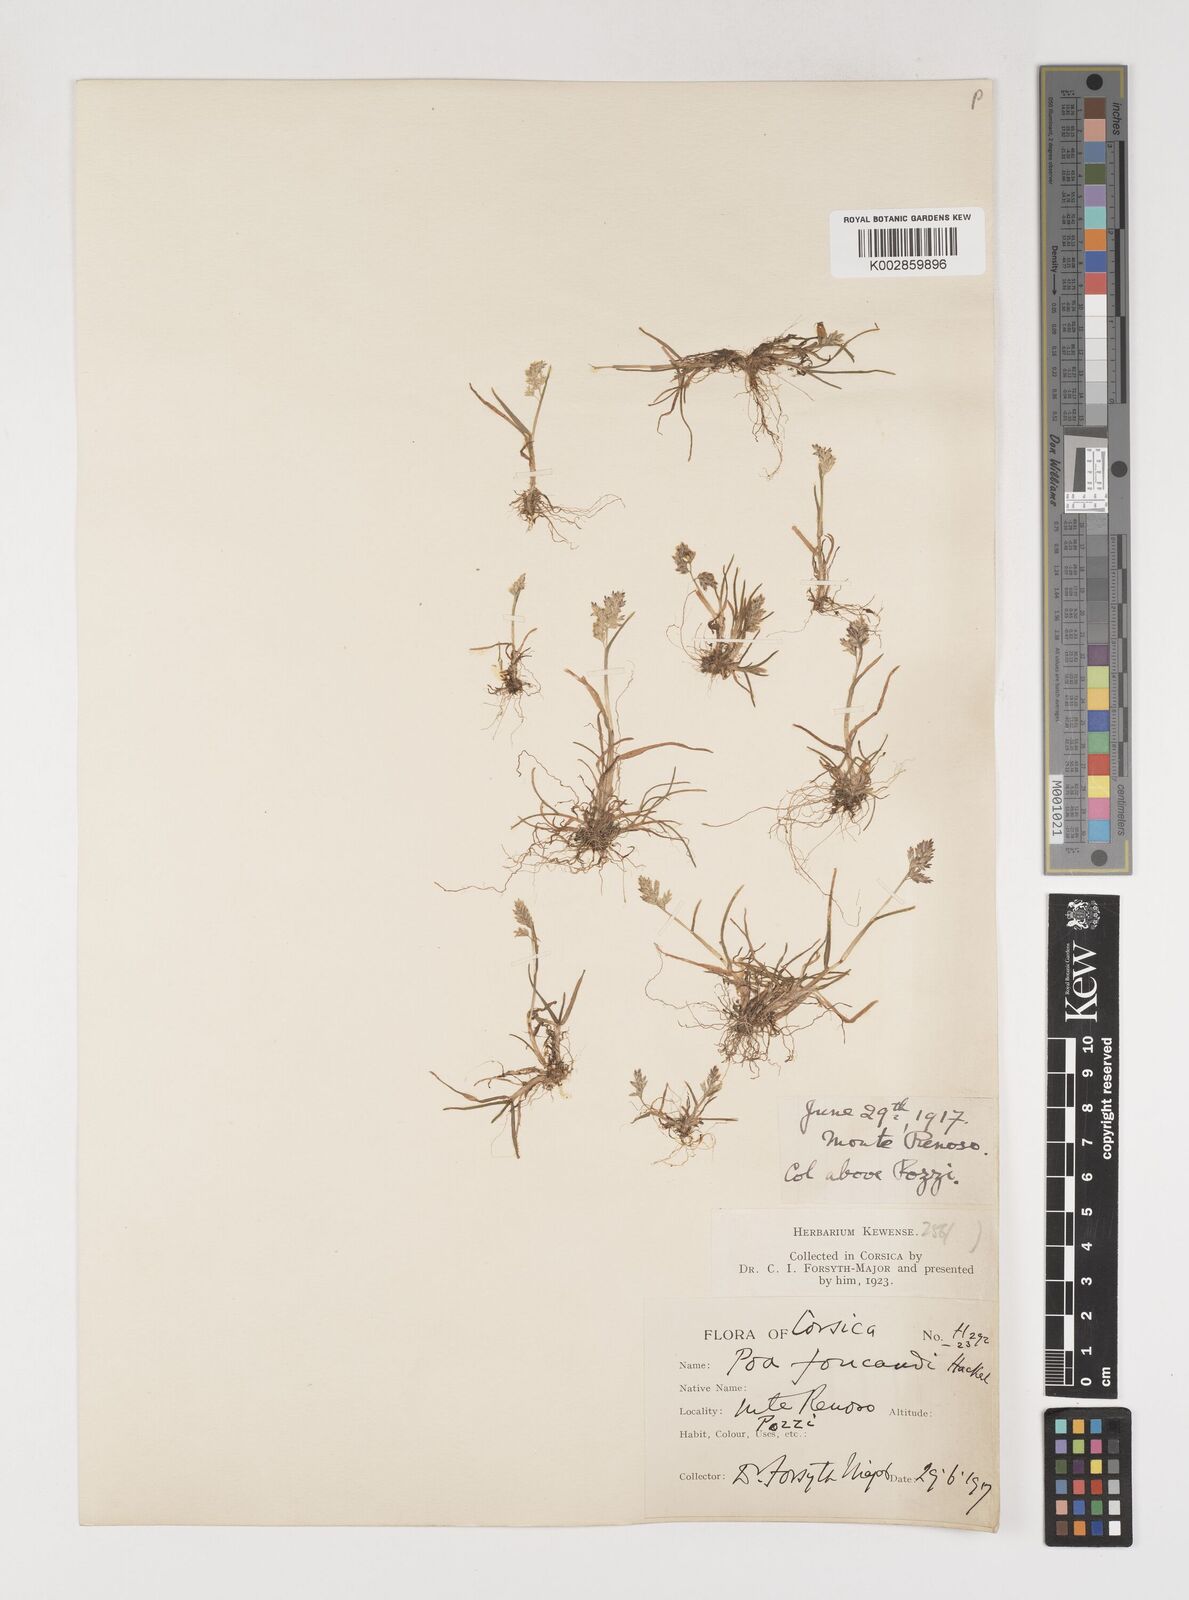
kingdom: Plantae
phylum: Tracheophyta
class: Liliopsida
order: Poales
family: Poaceae
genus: Poa
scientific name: Poa annua
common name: Annual bluegrass
